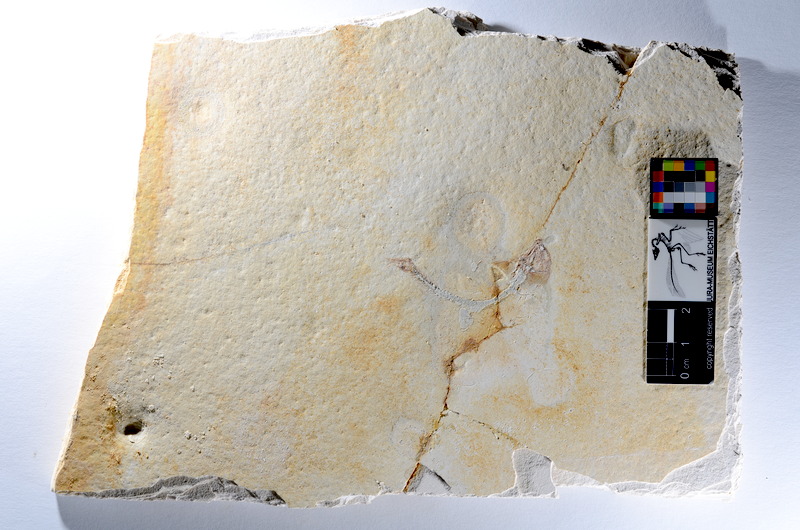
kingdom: Animalia
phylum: Chordata
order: Salmoniformes
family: Orthogonikleithridae
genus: Orthogonikleithrus
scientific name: Orthogonikleithrus hoelli
